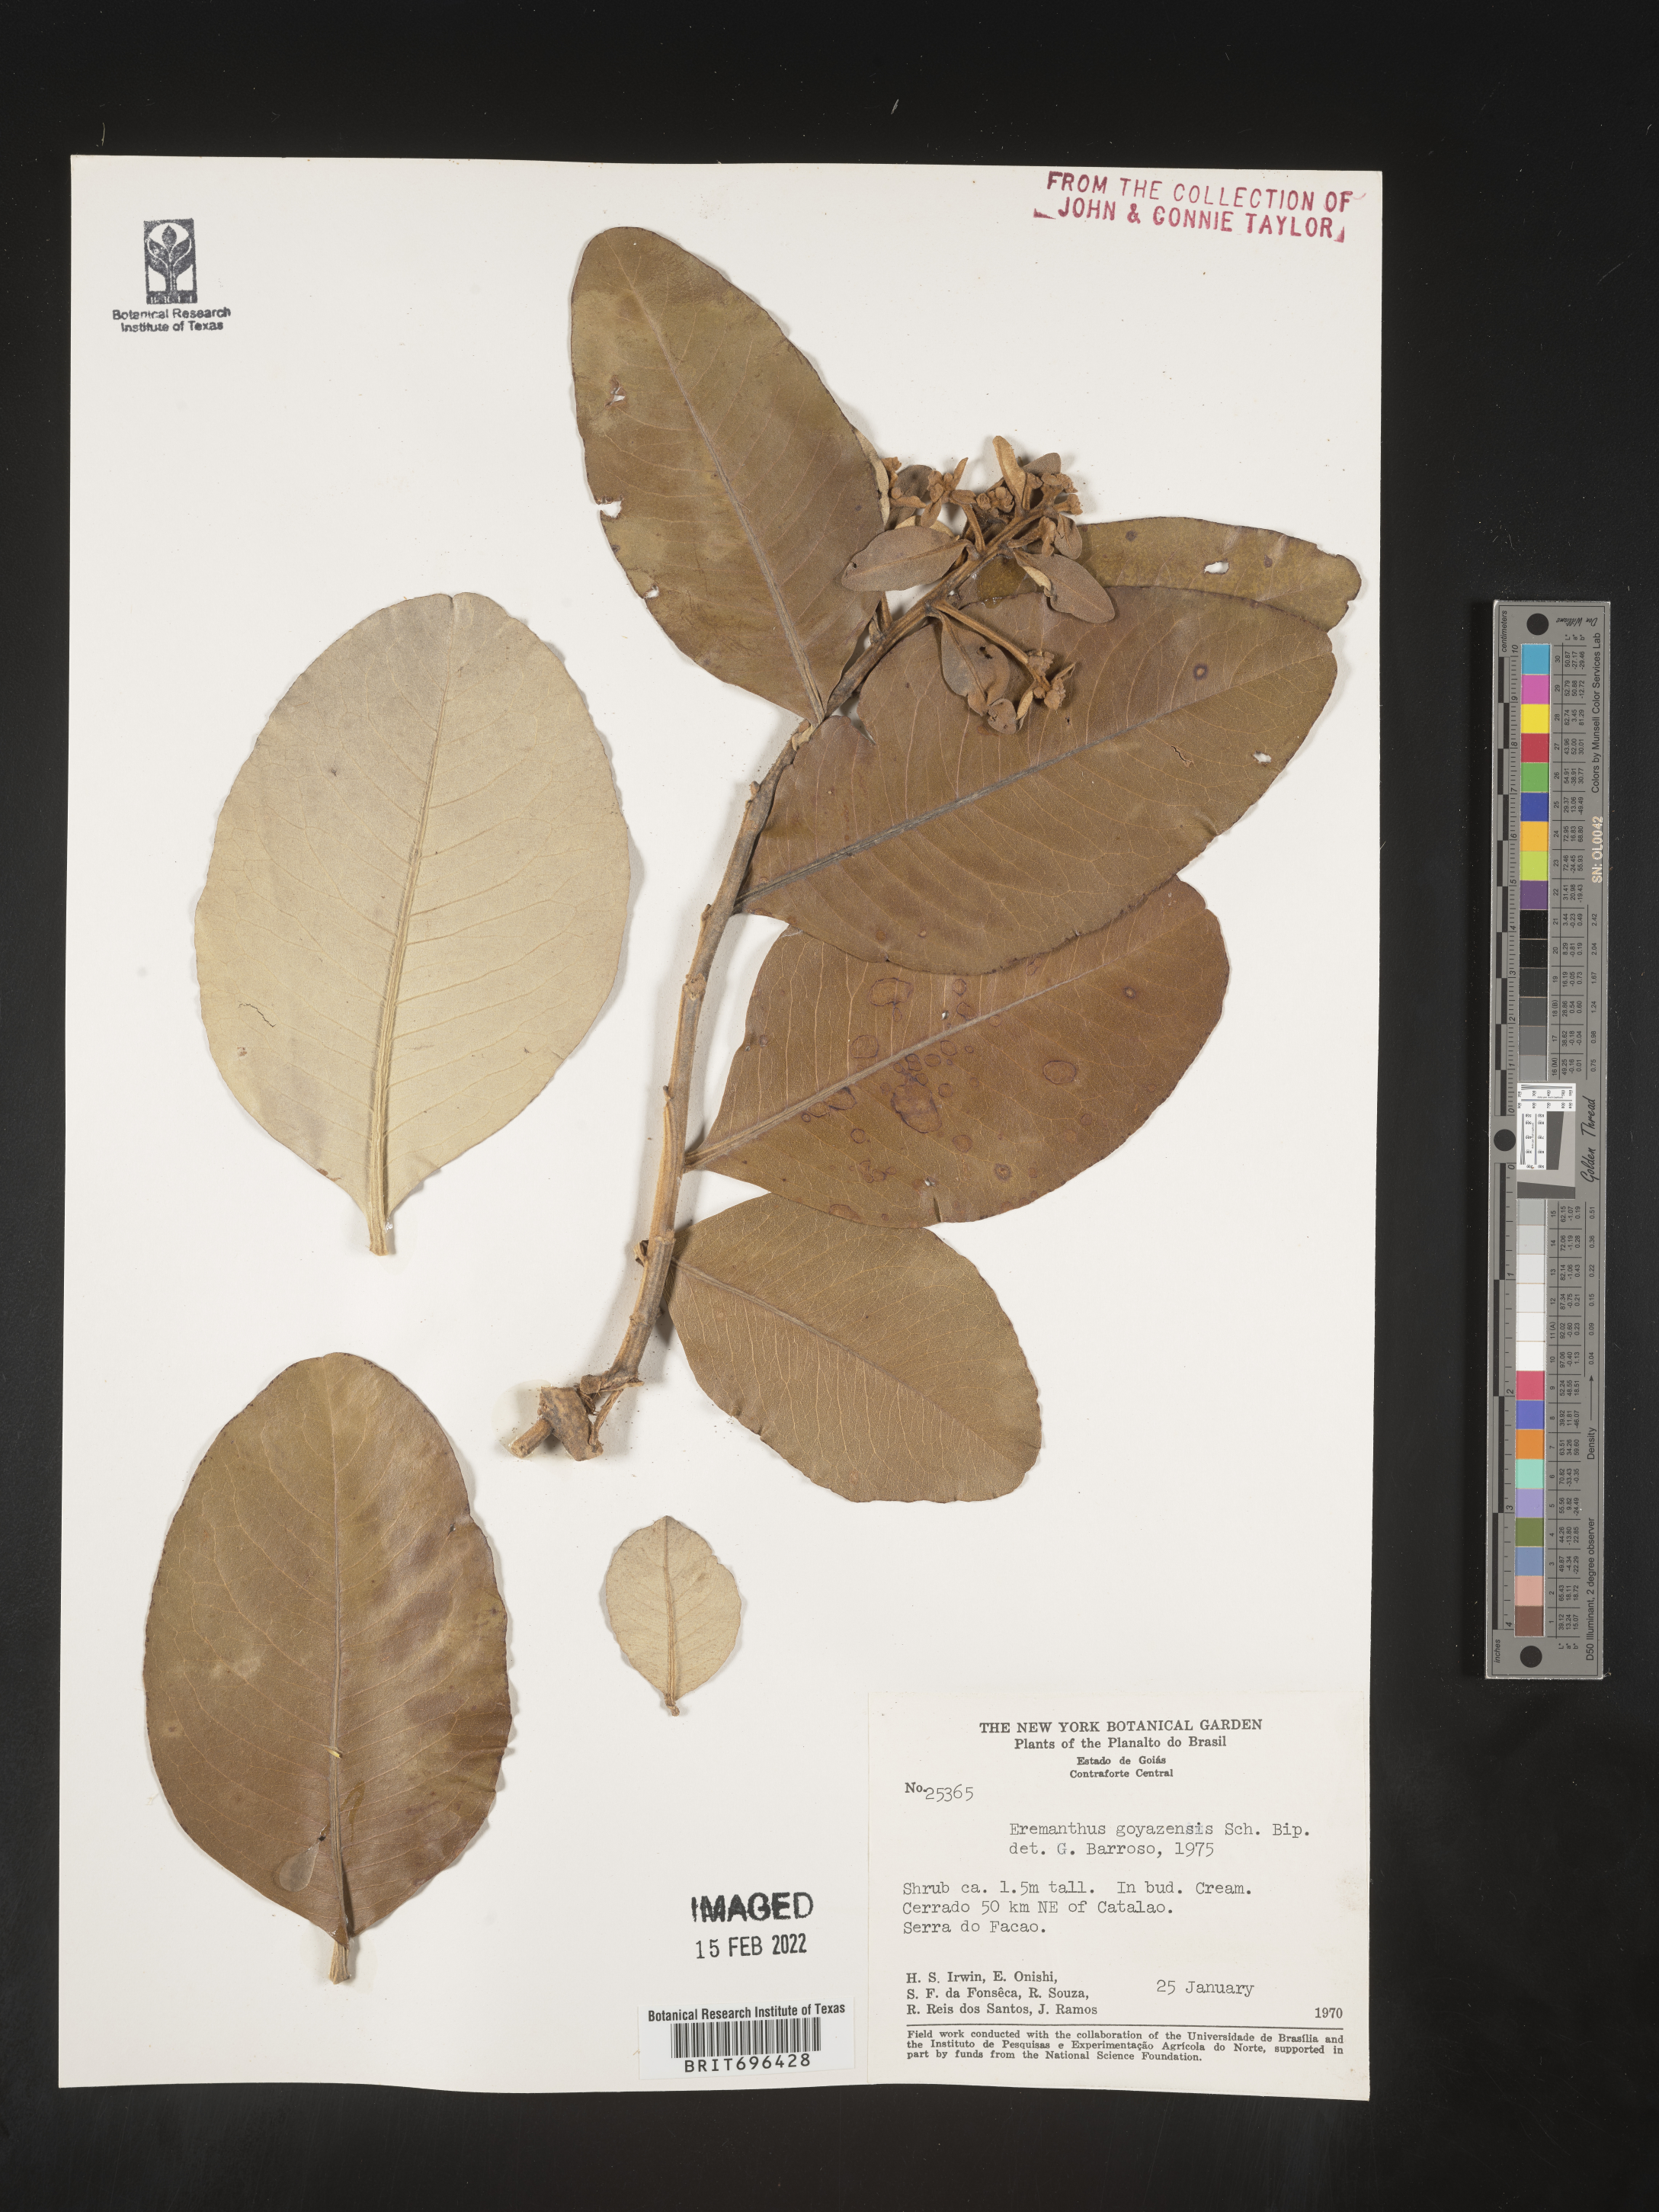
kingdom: Plantae
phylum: Tracheophyta
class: Magnoliopsida
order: Asterales
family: Asteraceae
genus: Eremanthus
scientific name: Eremanthus
